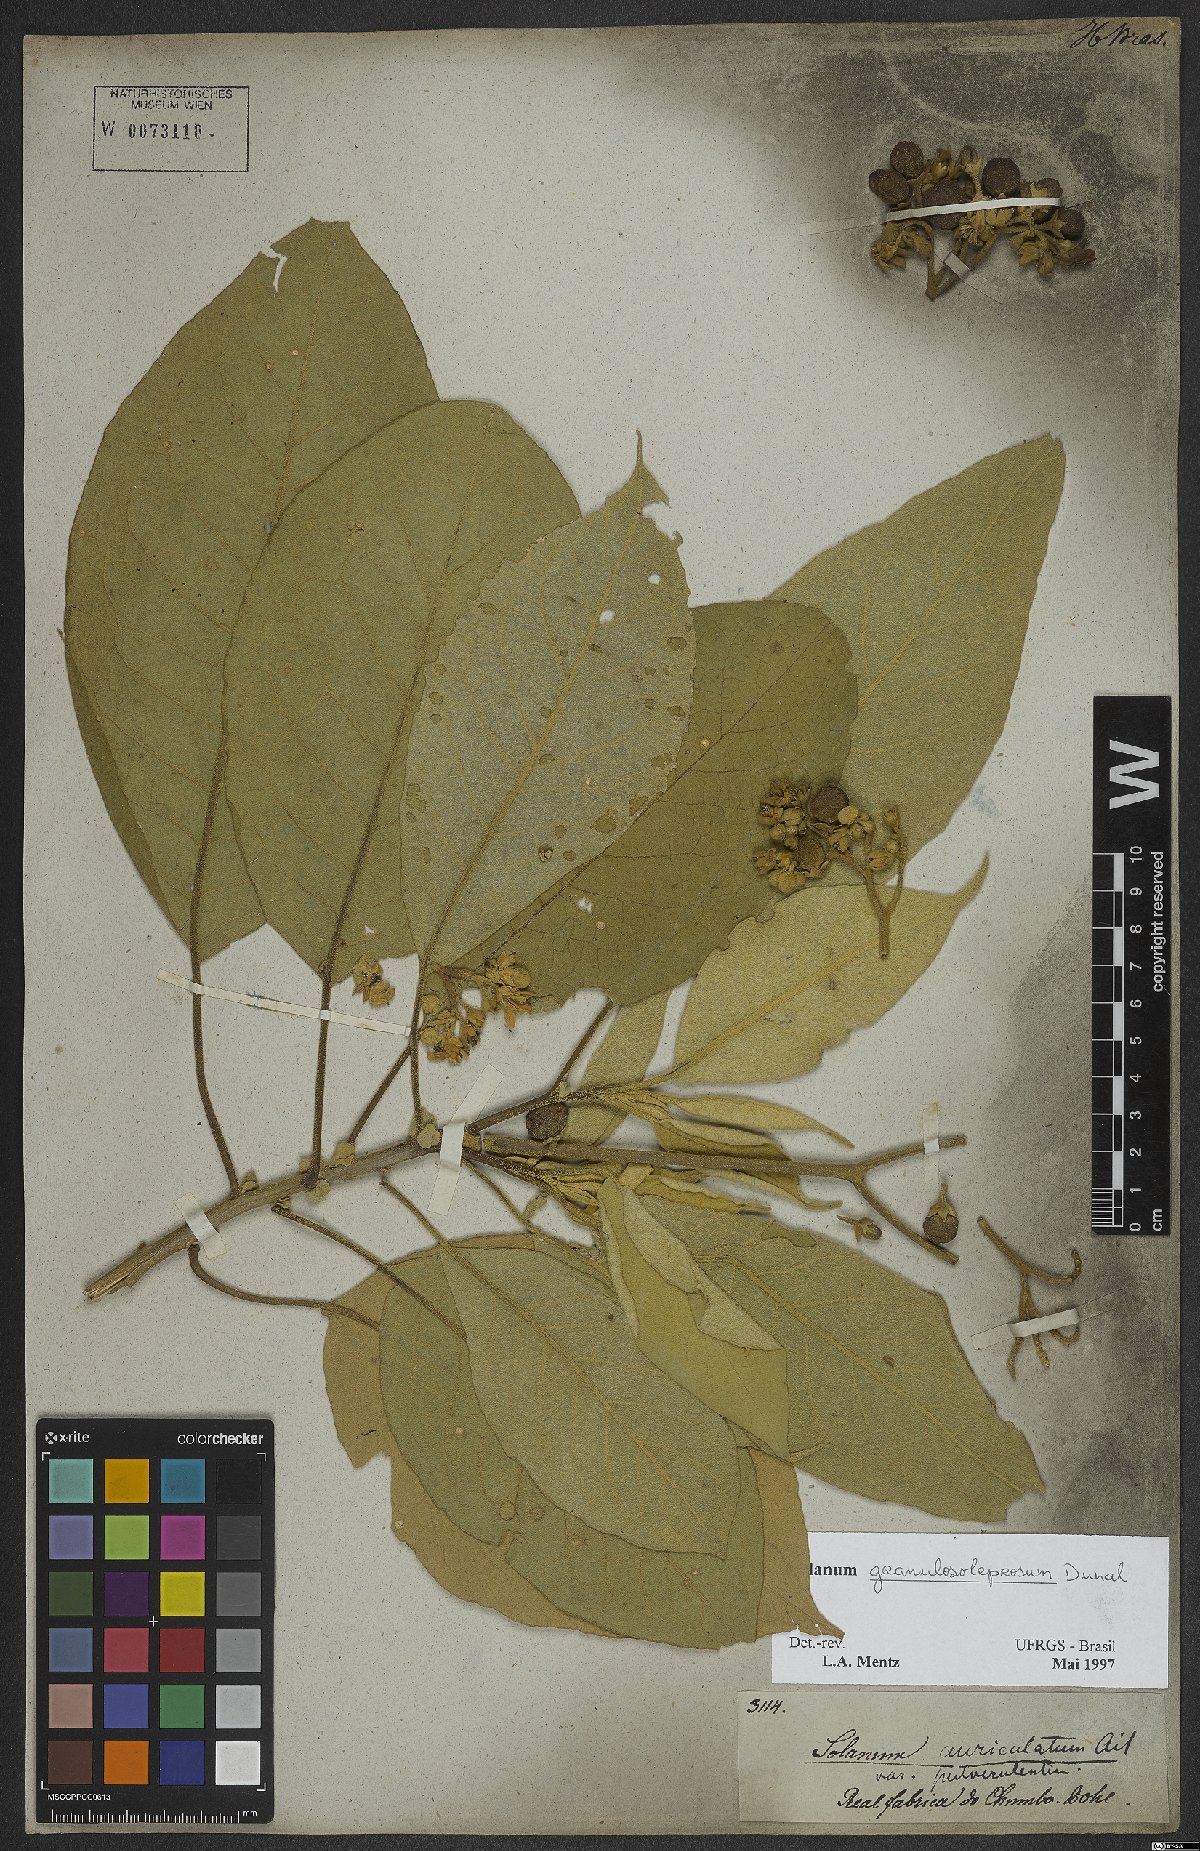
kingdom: Plantae
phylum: Tracheophyta
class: Magnoliopsida
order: Solanales
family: Solanaceae
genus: Solanum
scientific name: Solanum granulosoleprosum
